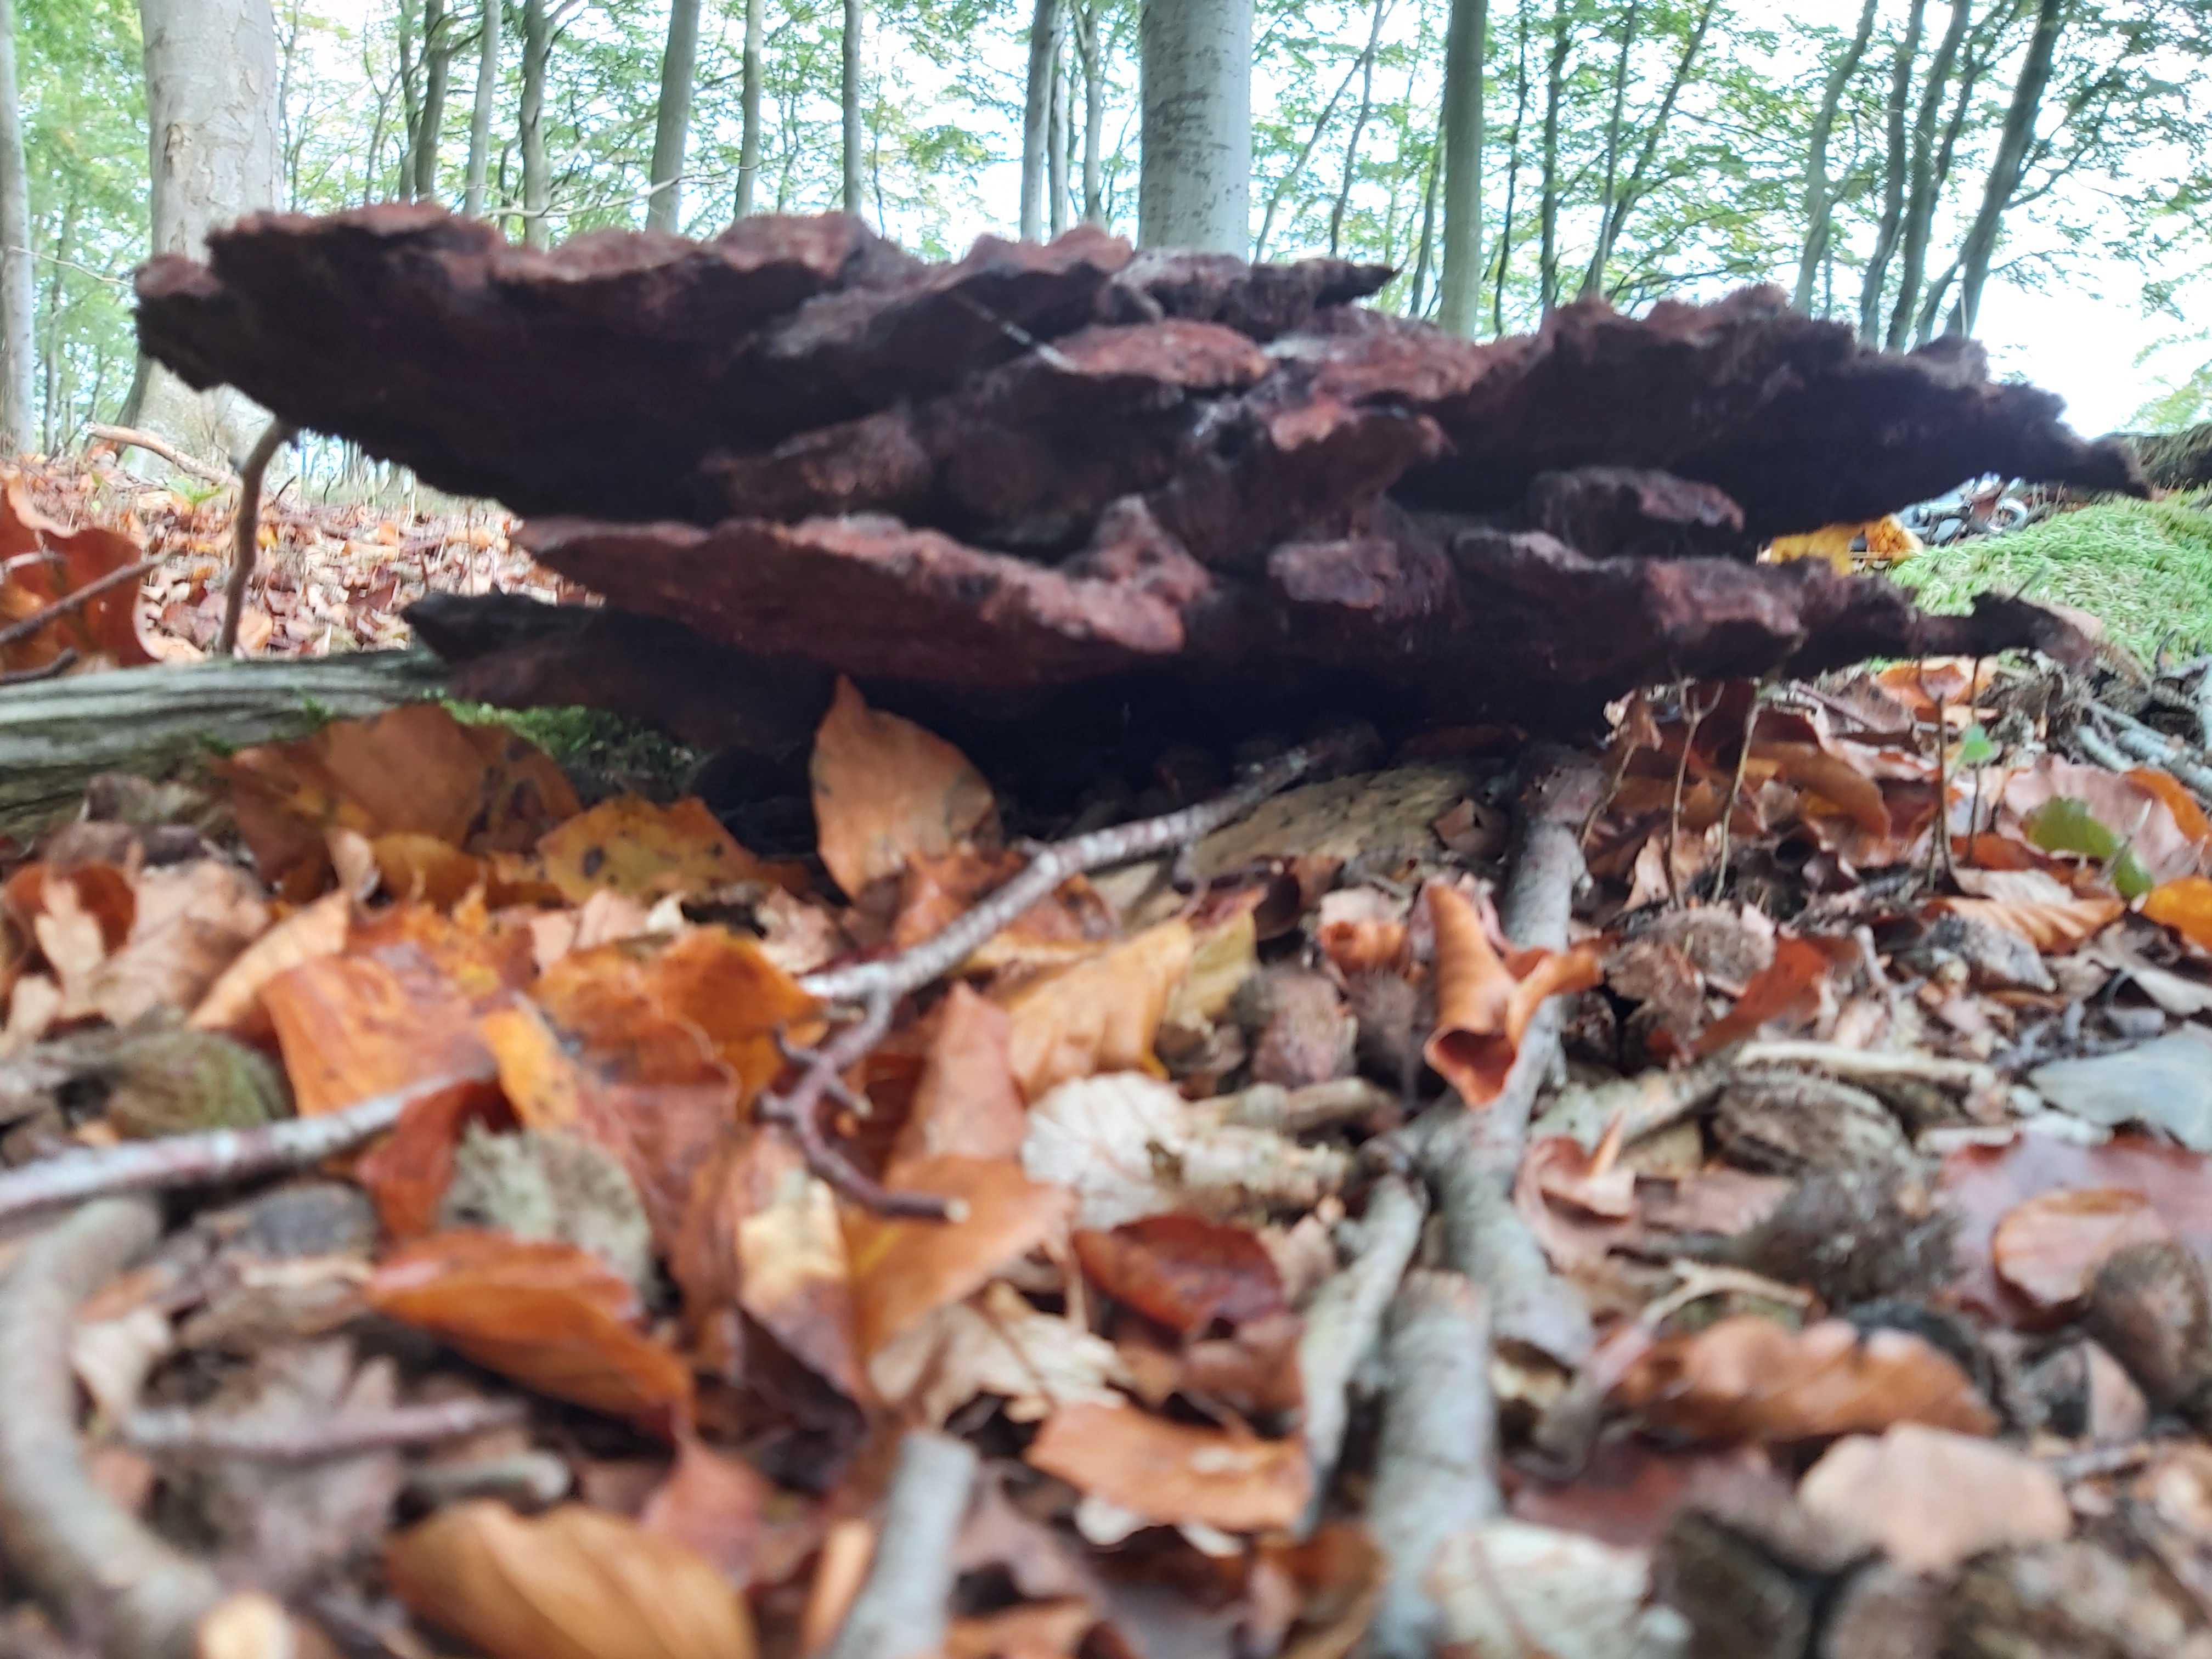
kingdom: Fungi
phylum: Basidiomycota
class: Agaricomycetes
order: Polyporales
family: Laetiporaceae
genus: Phaeolus
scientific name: Phaeolus schweinitzii
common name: brunporesvamp
